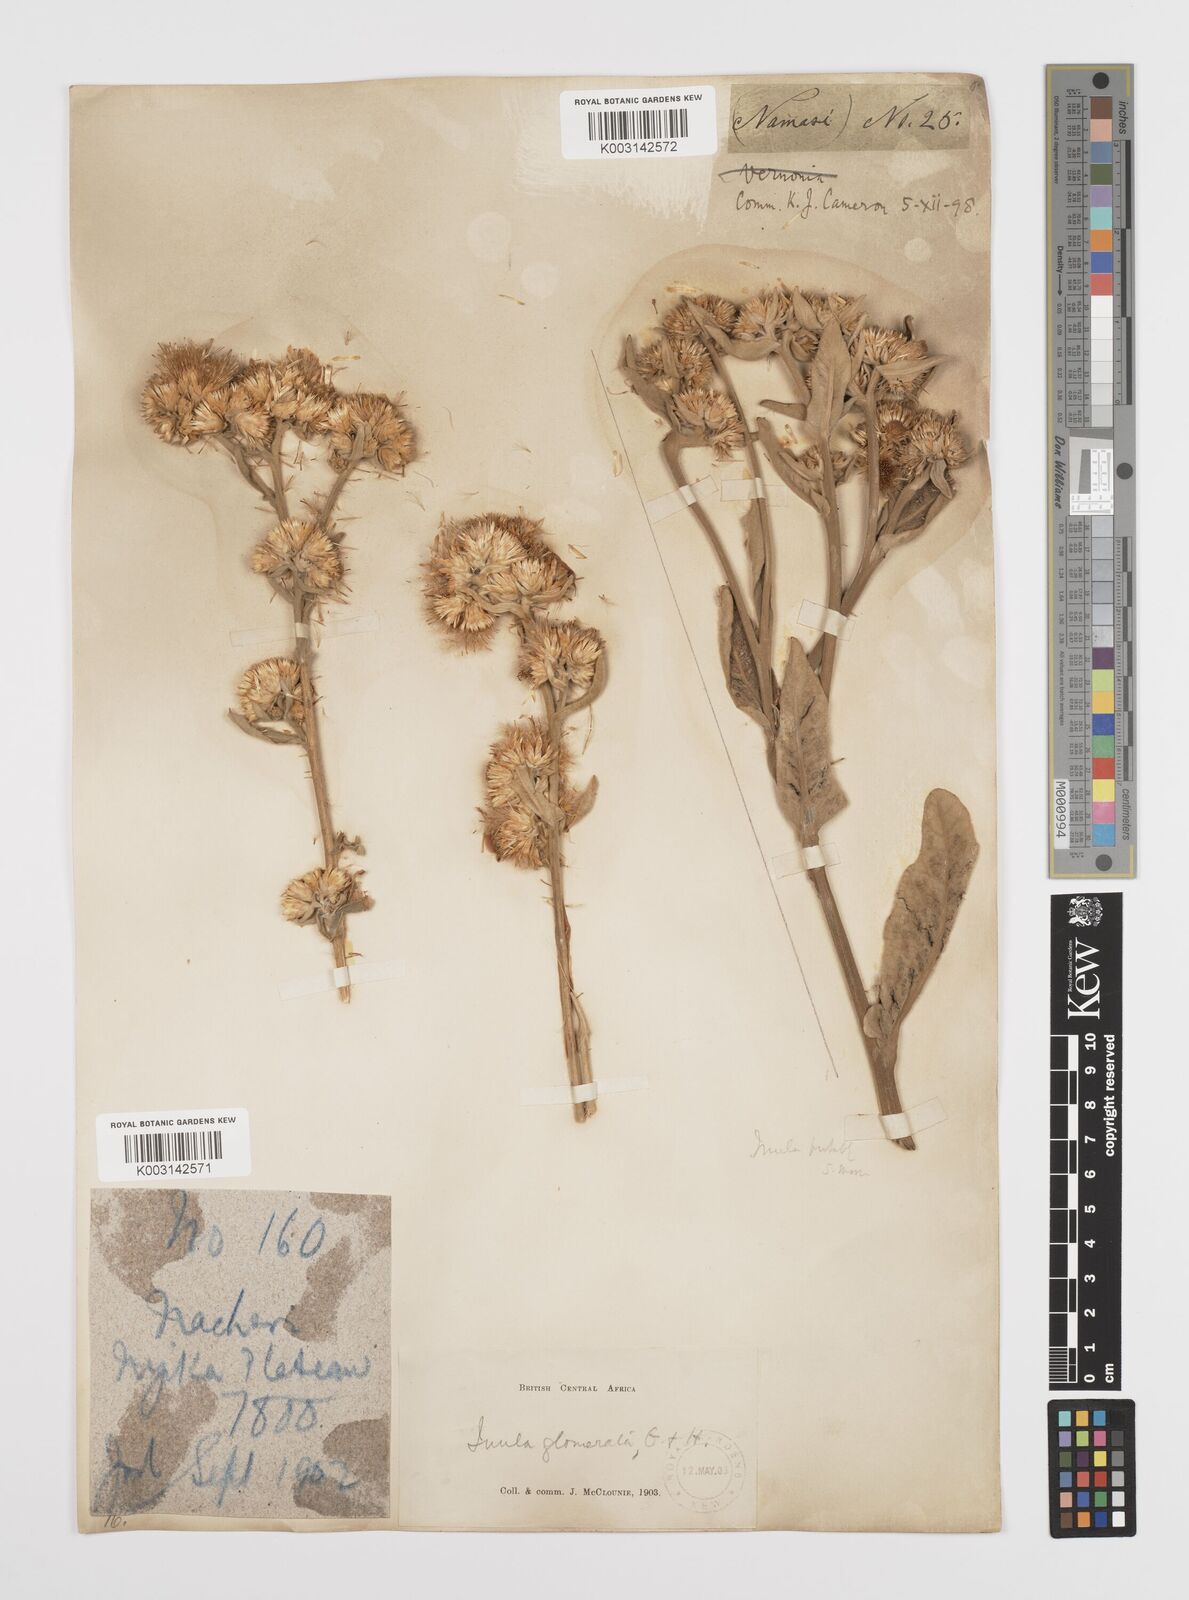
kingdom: Plantae
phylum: Tracheophyta
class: Magnoliopsida
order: Asterales
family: Asteraceae
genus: Inula
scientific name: Inula glomerata
